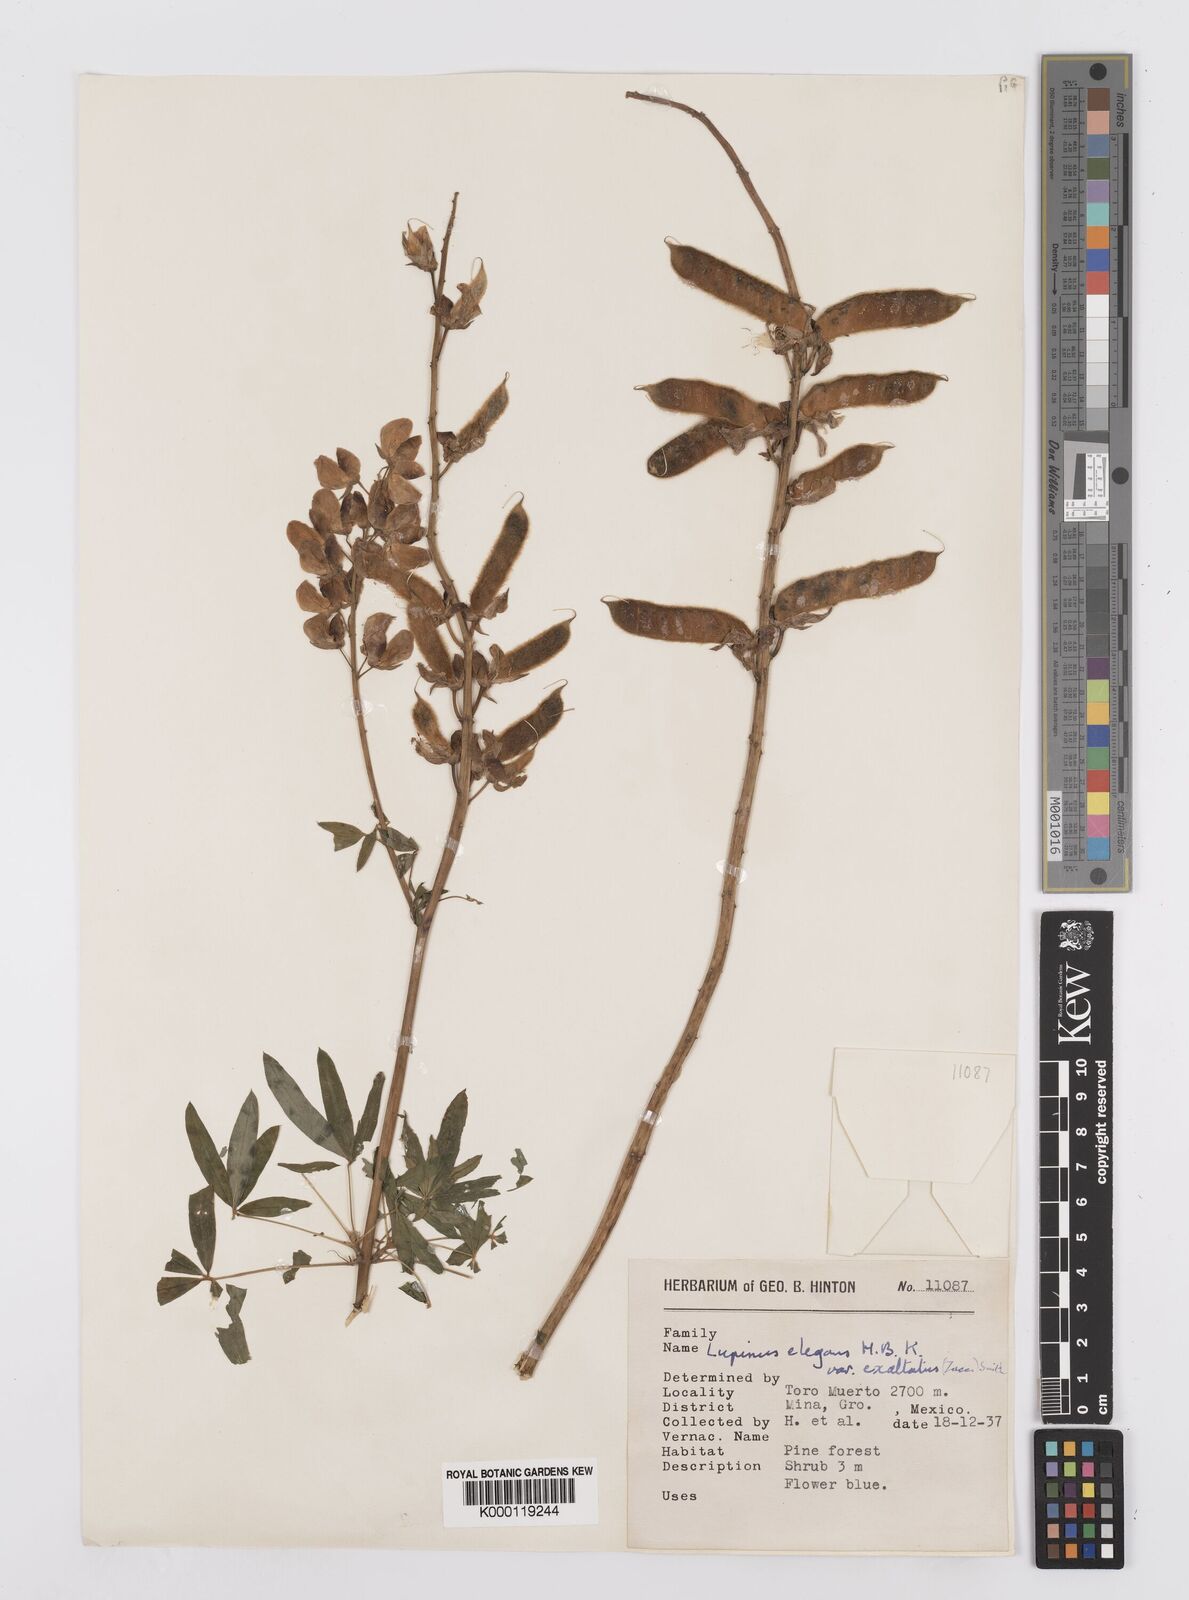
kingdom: Plantae
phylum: Tracheophyta
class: Magnoliopsida
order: Fabales
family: Fabaceae
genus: Lupinus
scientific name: Lupinus elegans
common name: Mexican lupine
